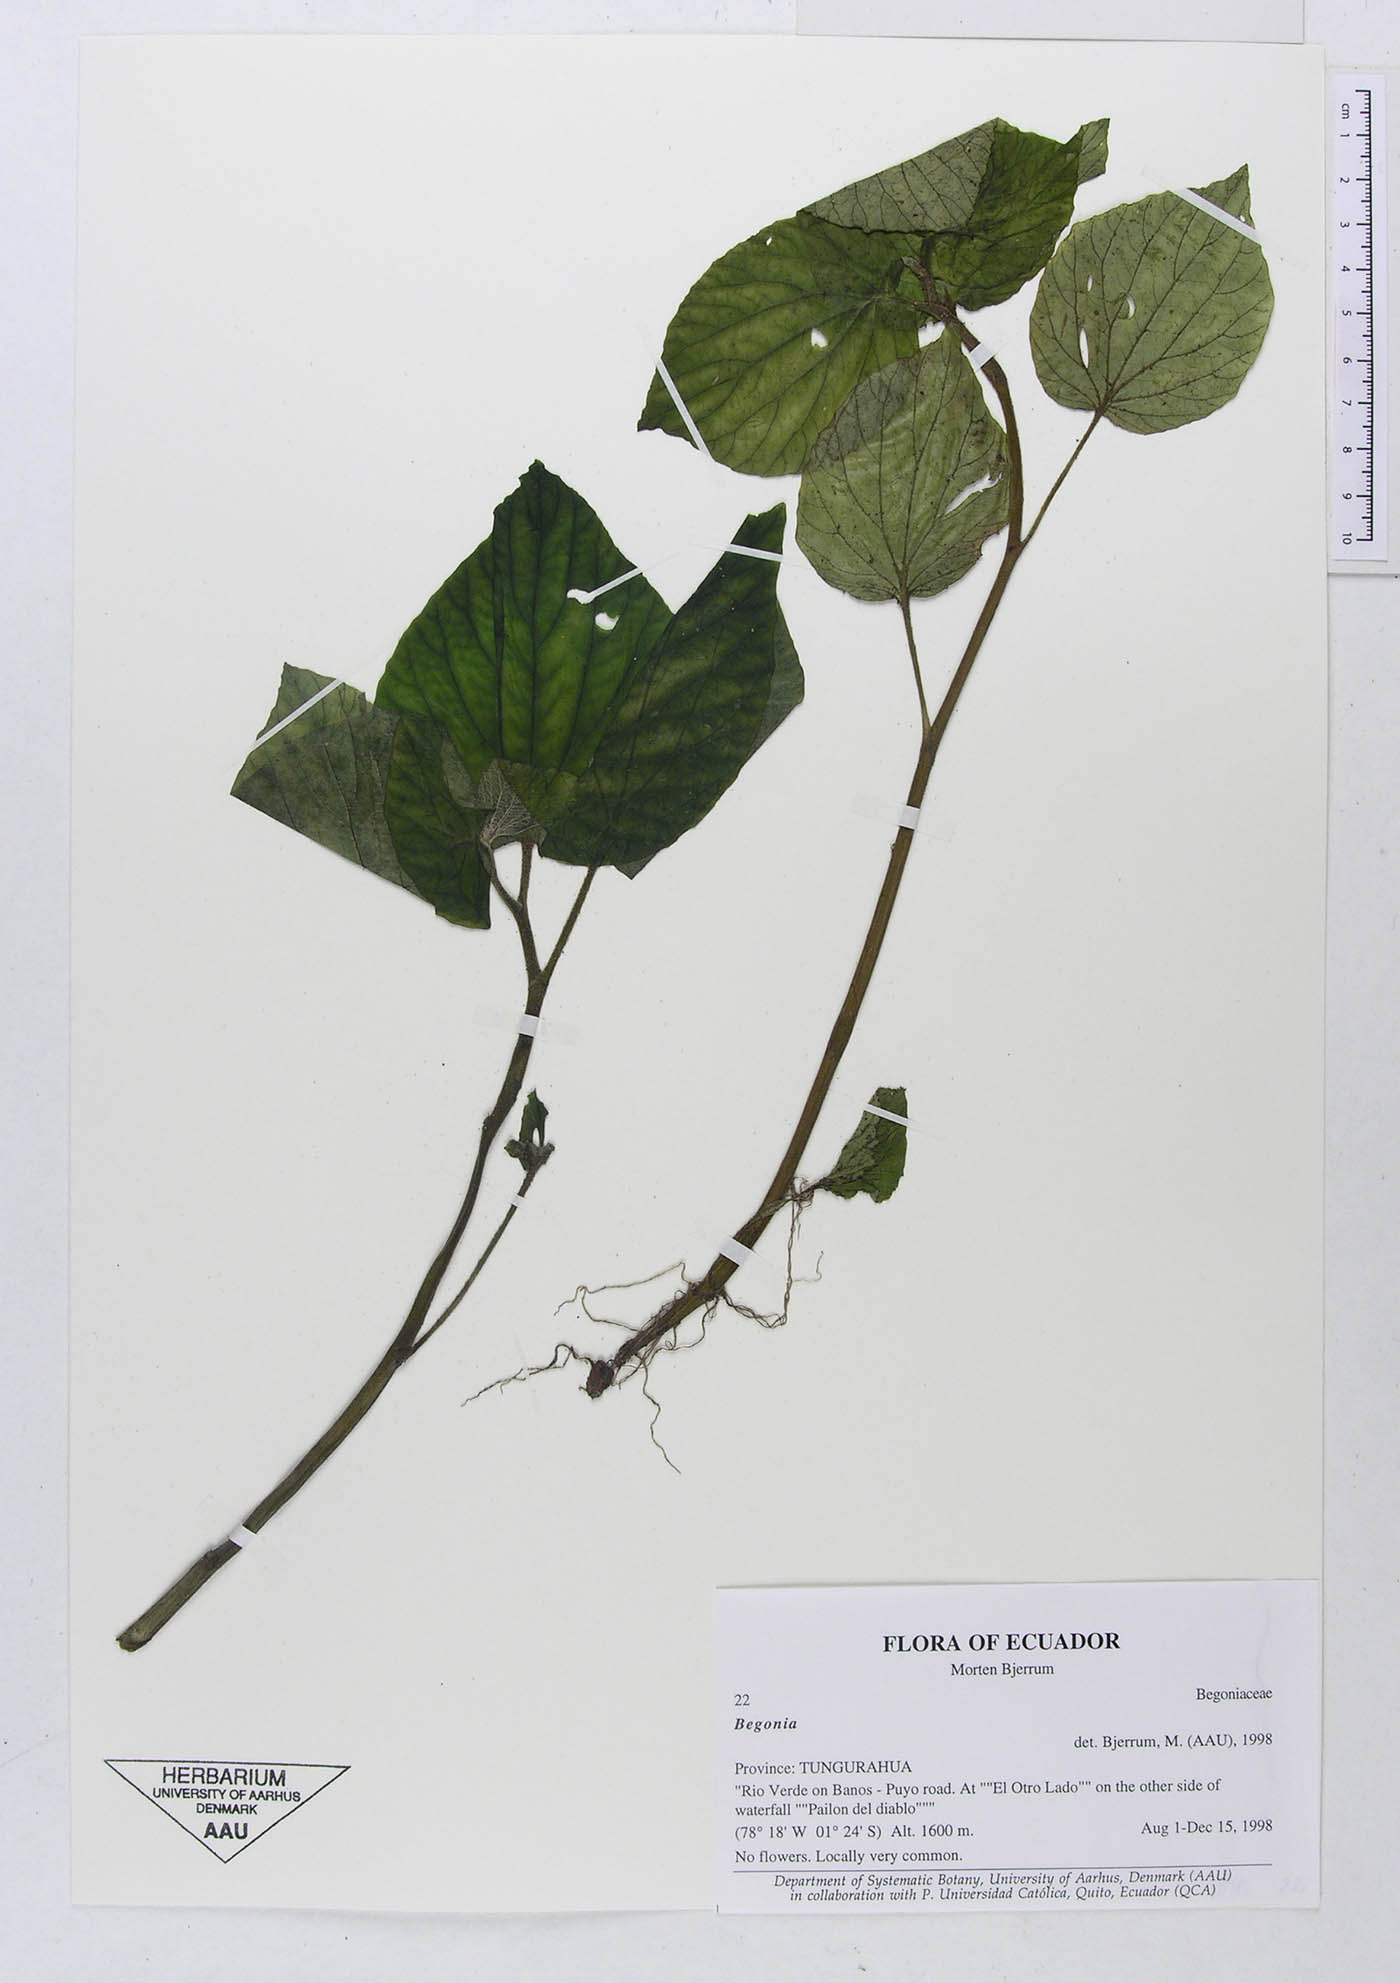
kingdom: Plantae
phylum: Tracheophyta
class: Magnoliopsida
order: Cucurbitales
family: Begoniaceae
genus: Begonia
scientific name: Begonia
